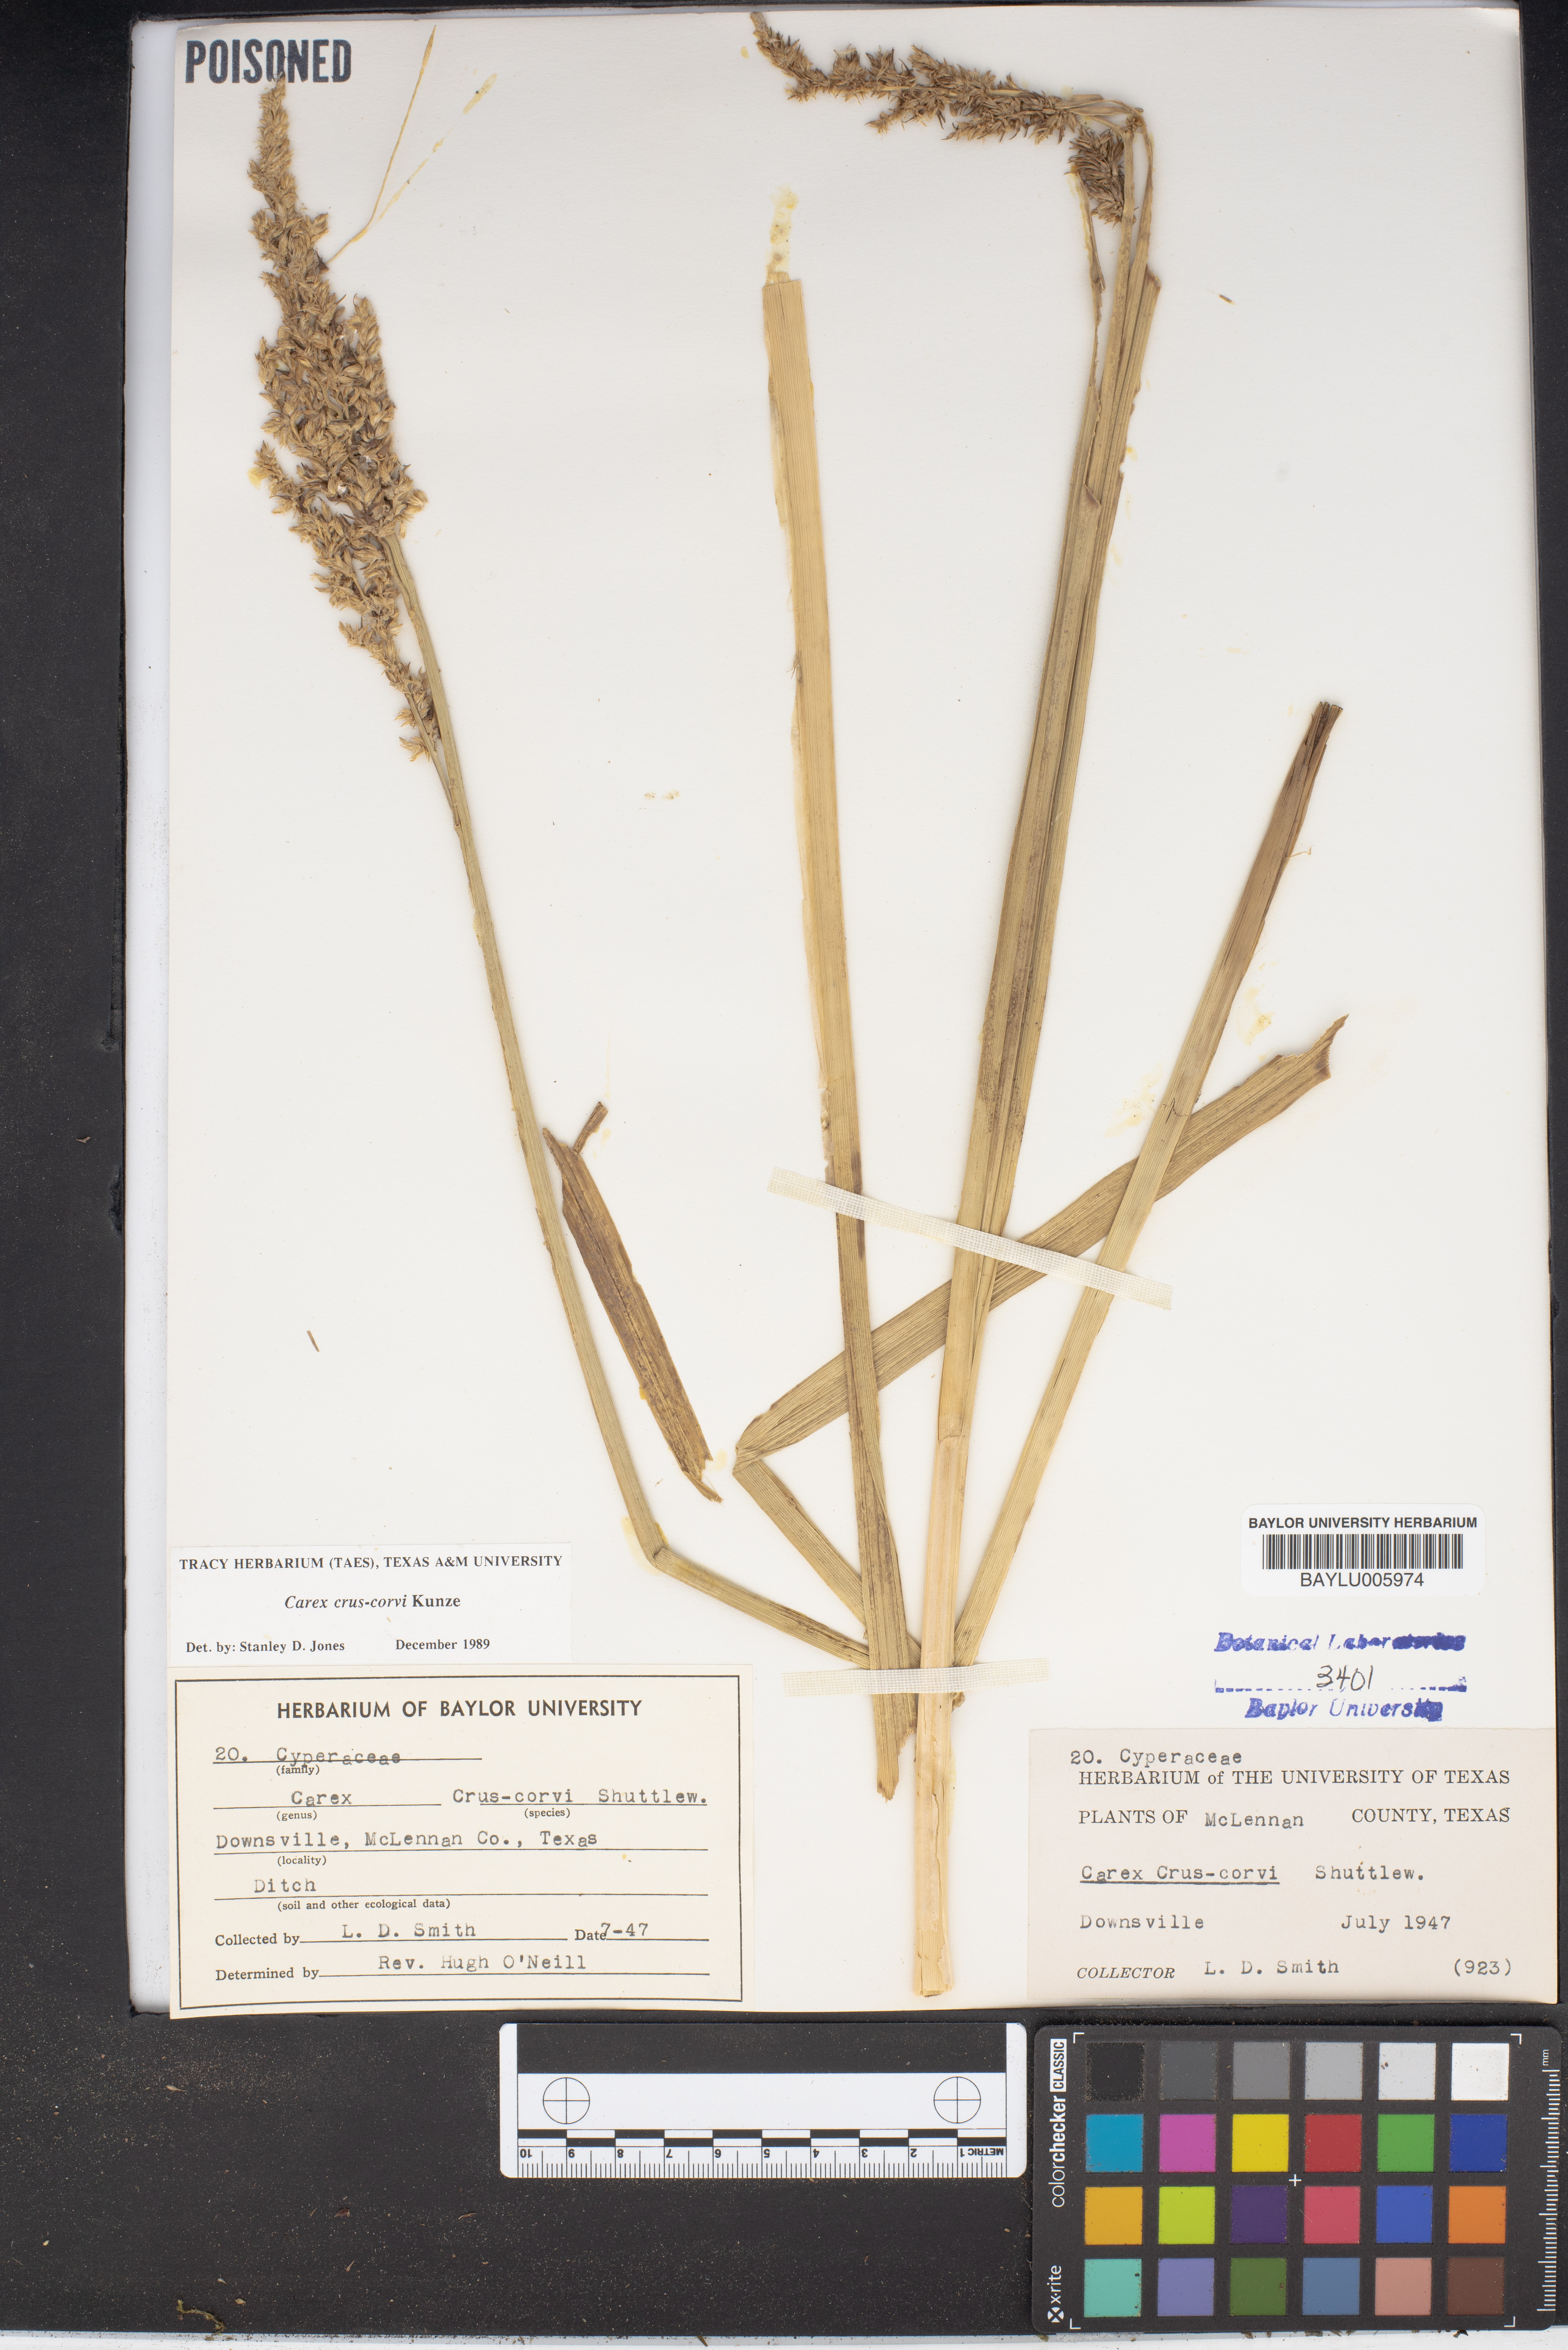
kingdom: Plantae
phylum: Tracheophyta
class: Liliopsida
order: Poales
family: Cyperaceae
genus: Carex
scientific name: Carex crus-corvi
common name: Crow-spur sedge
